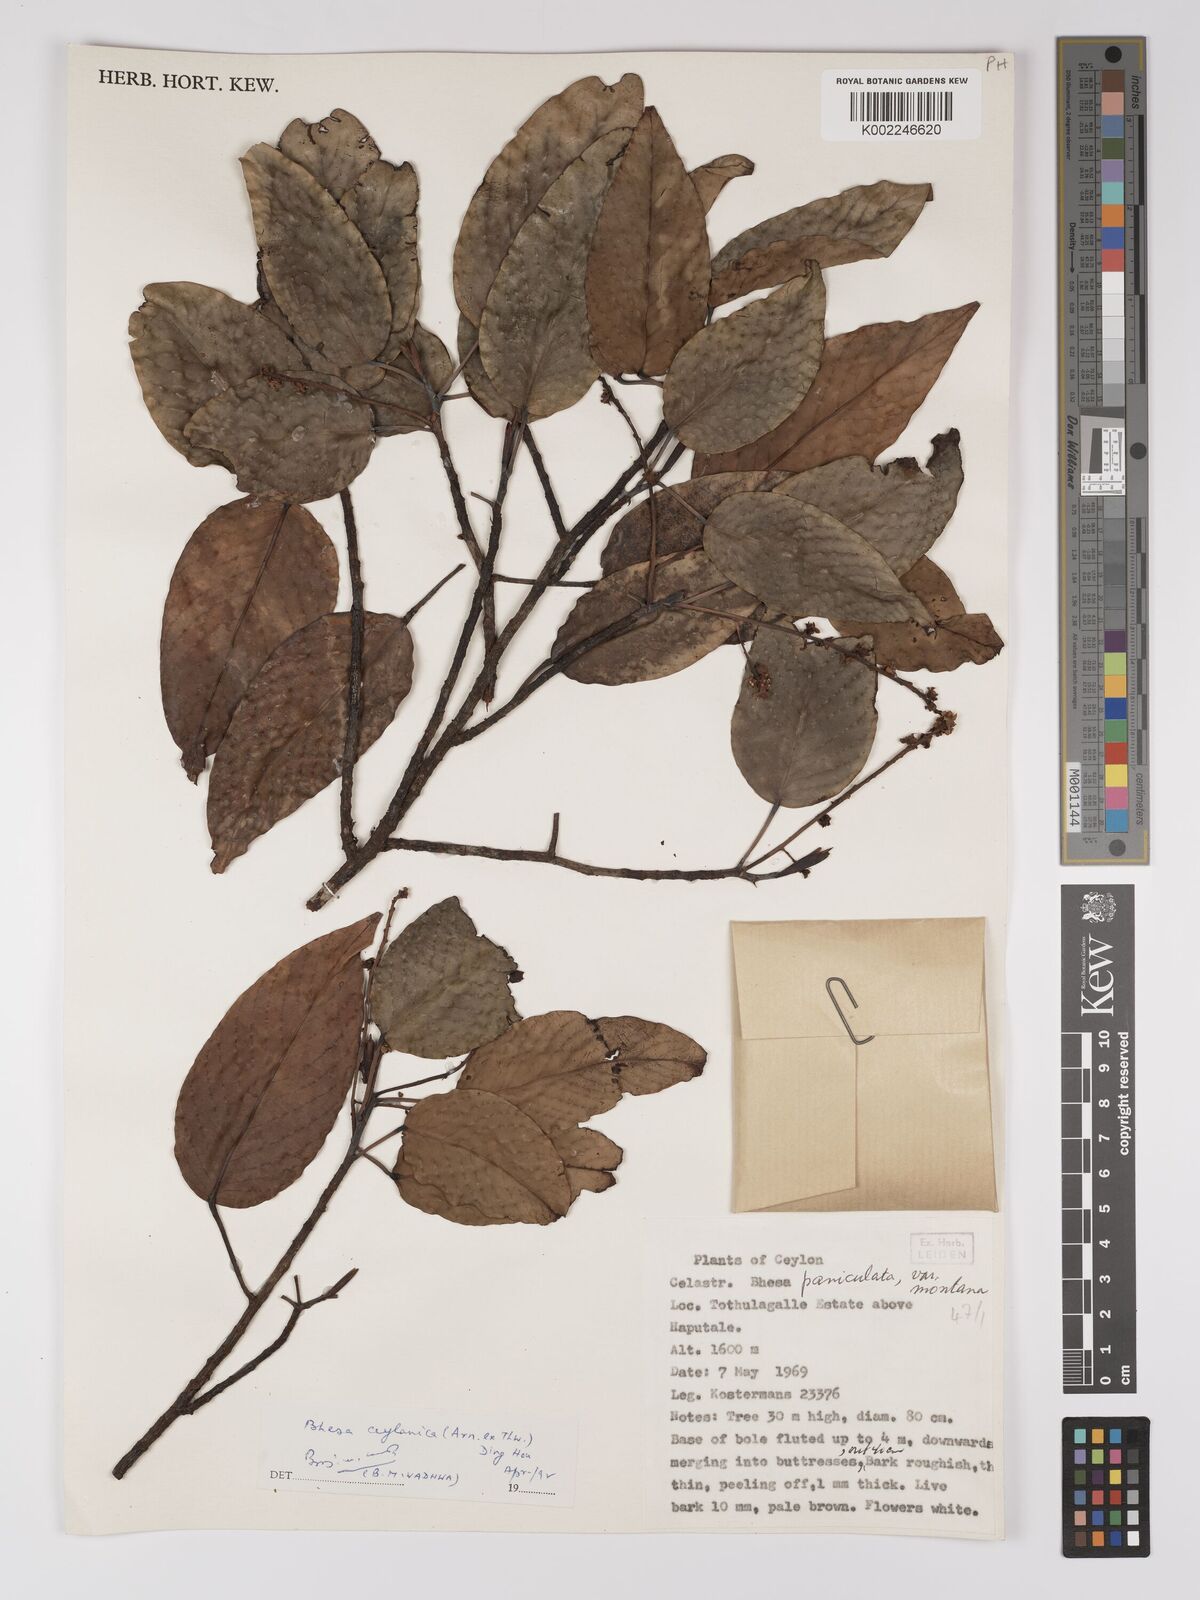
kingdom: Plantae
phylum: Tracheophyta
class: Magnoliopsida
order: Malpighiales
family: Centroplacaceae
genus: Bhesa
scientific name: Bhesa paniculata
